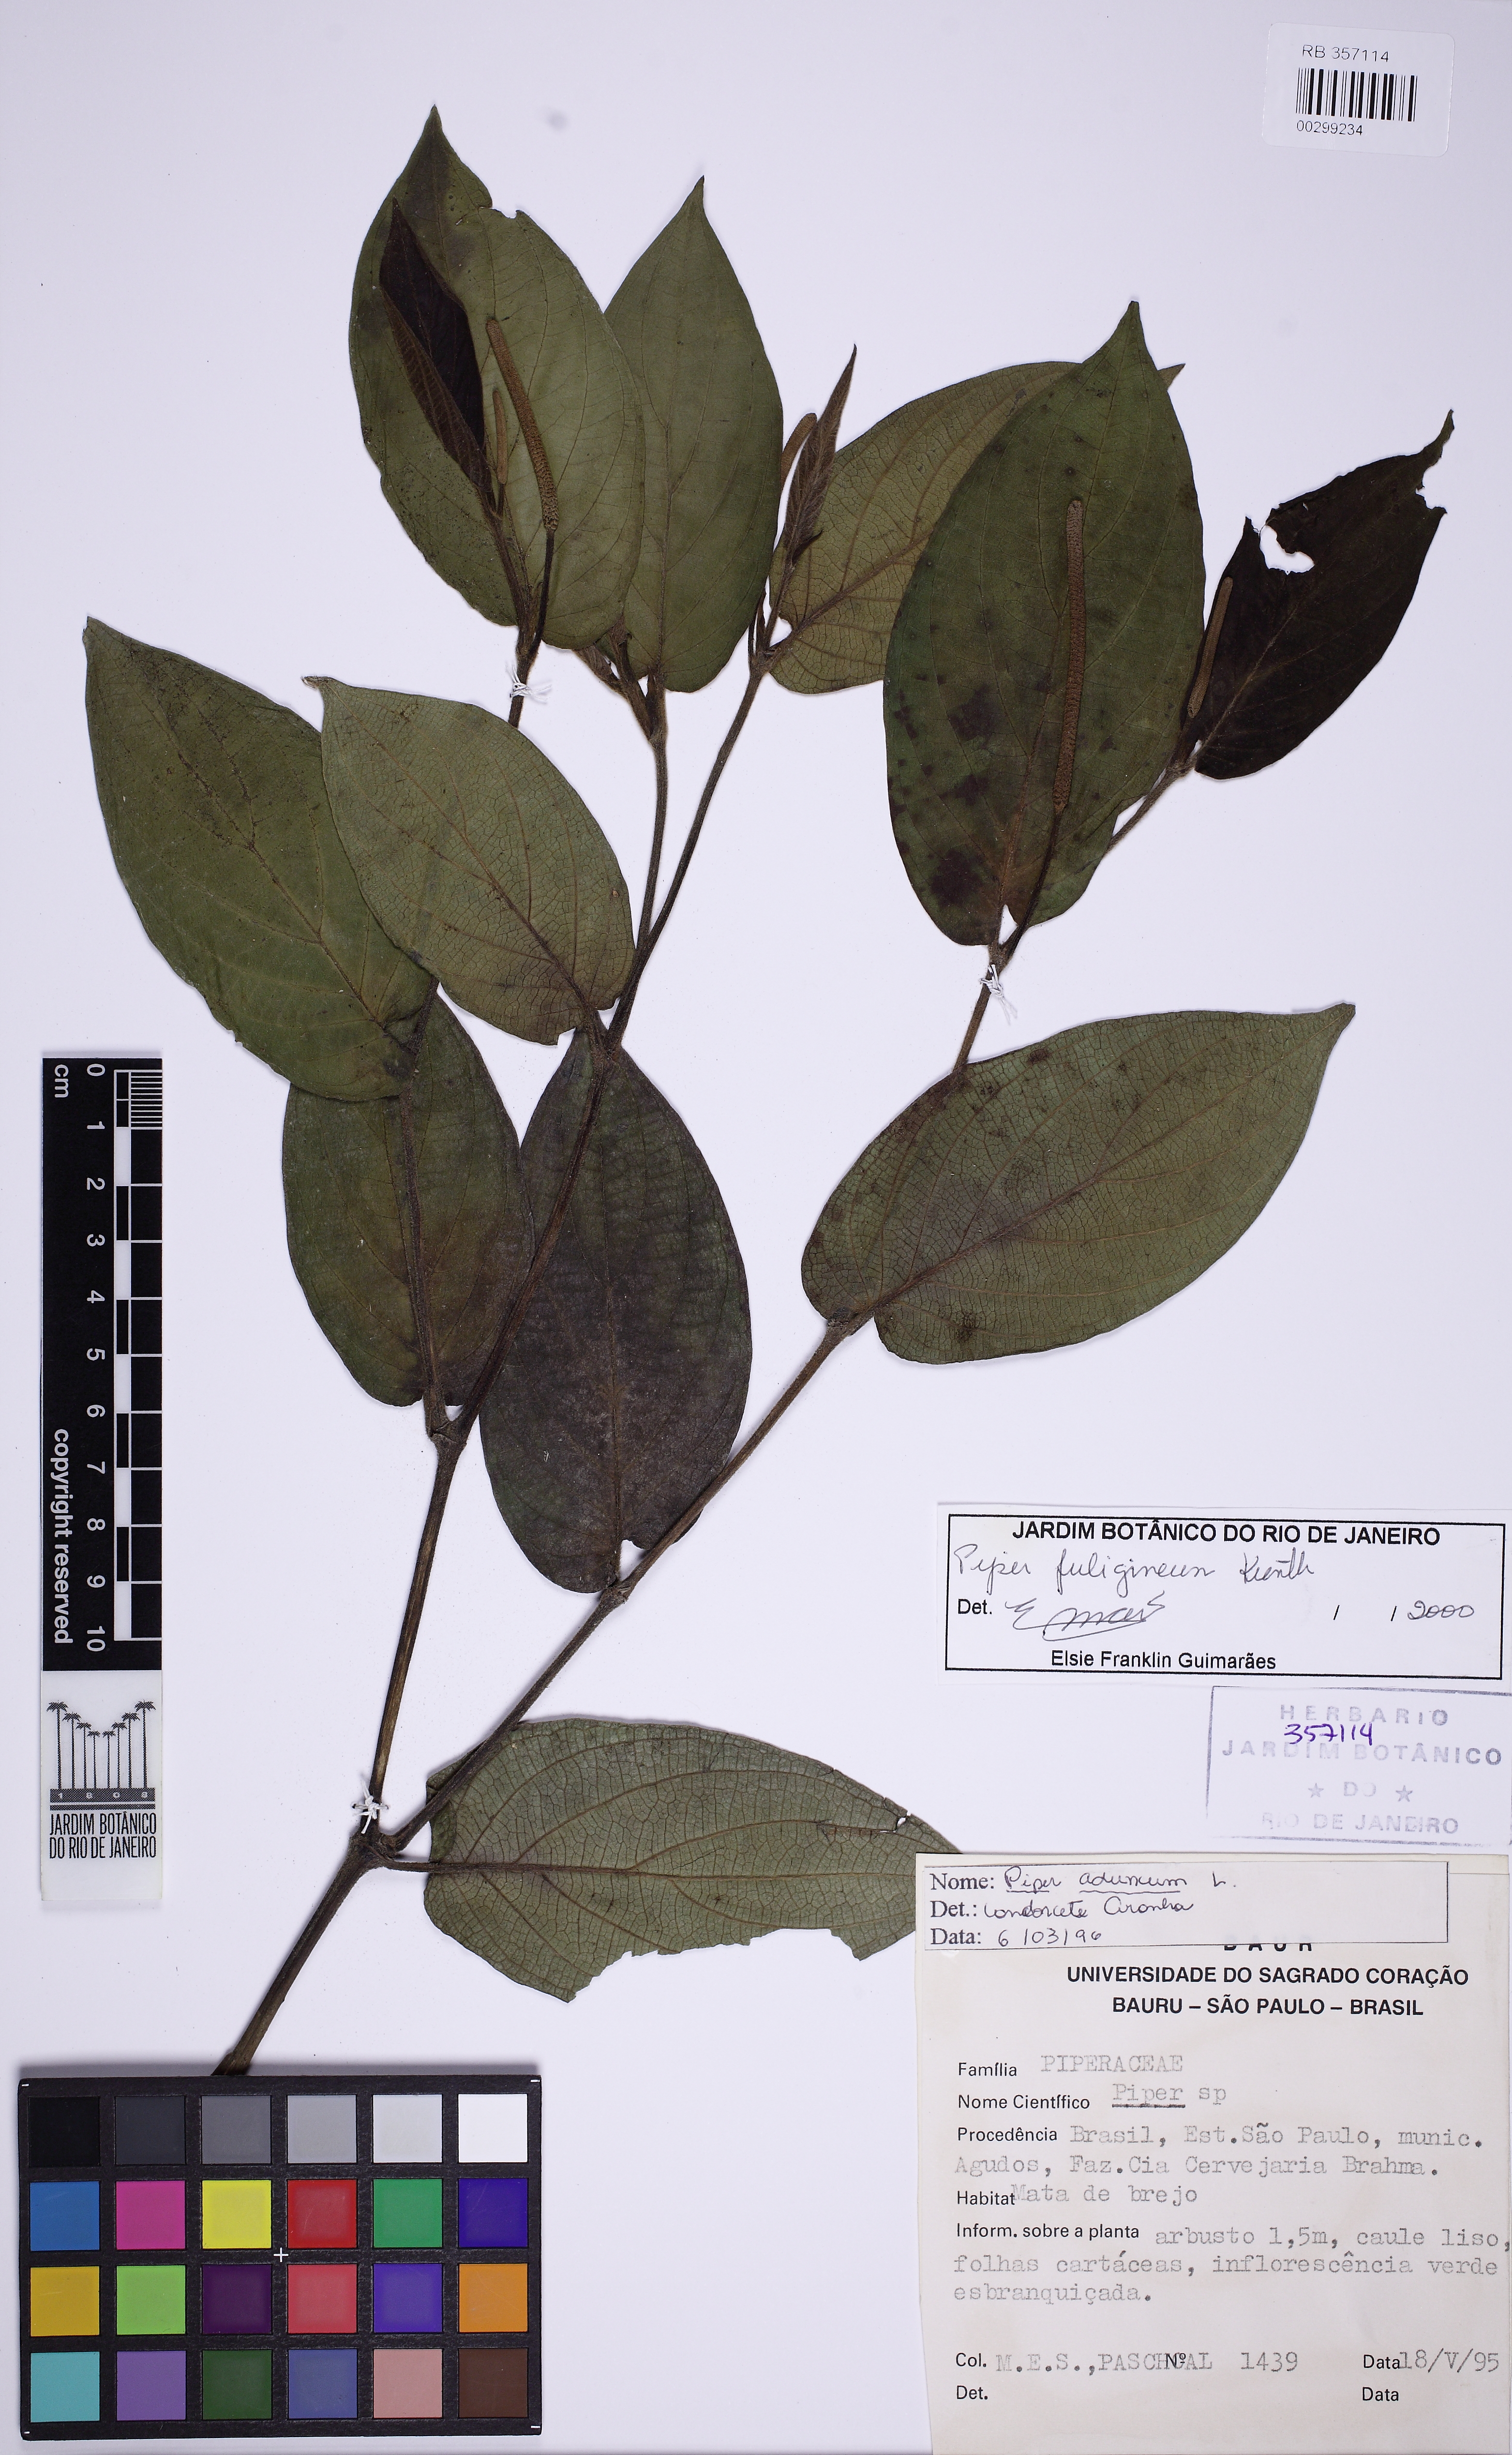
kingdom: Plantae
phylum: Tracheophyta
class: Magnoliopsida
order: Piperales
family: Piperaceae
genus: Piper
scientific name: Piper fuligineum
